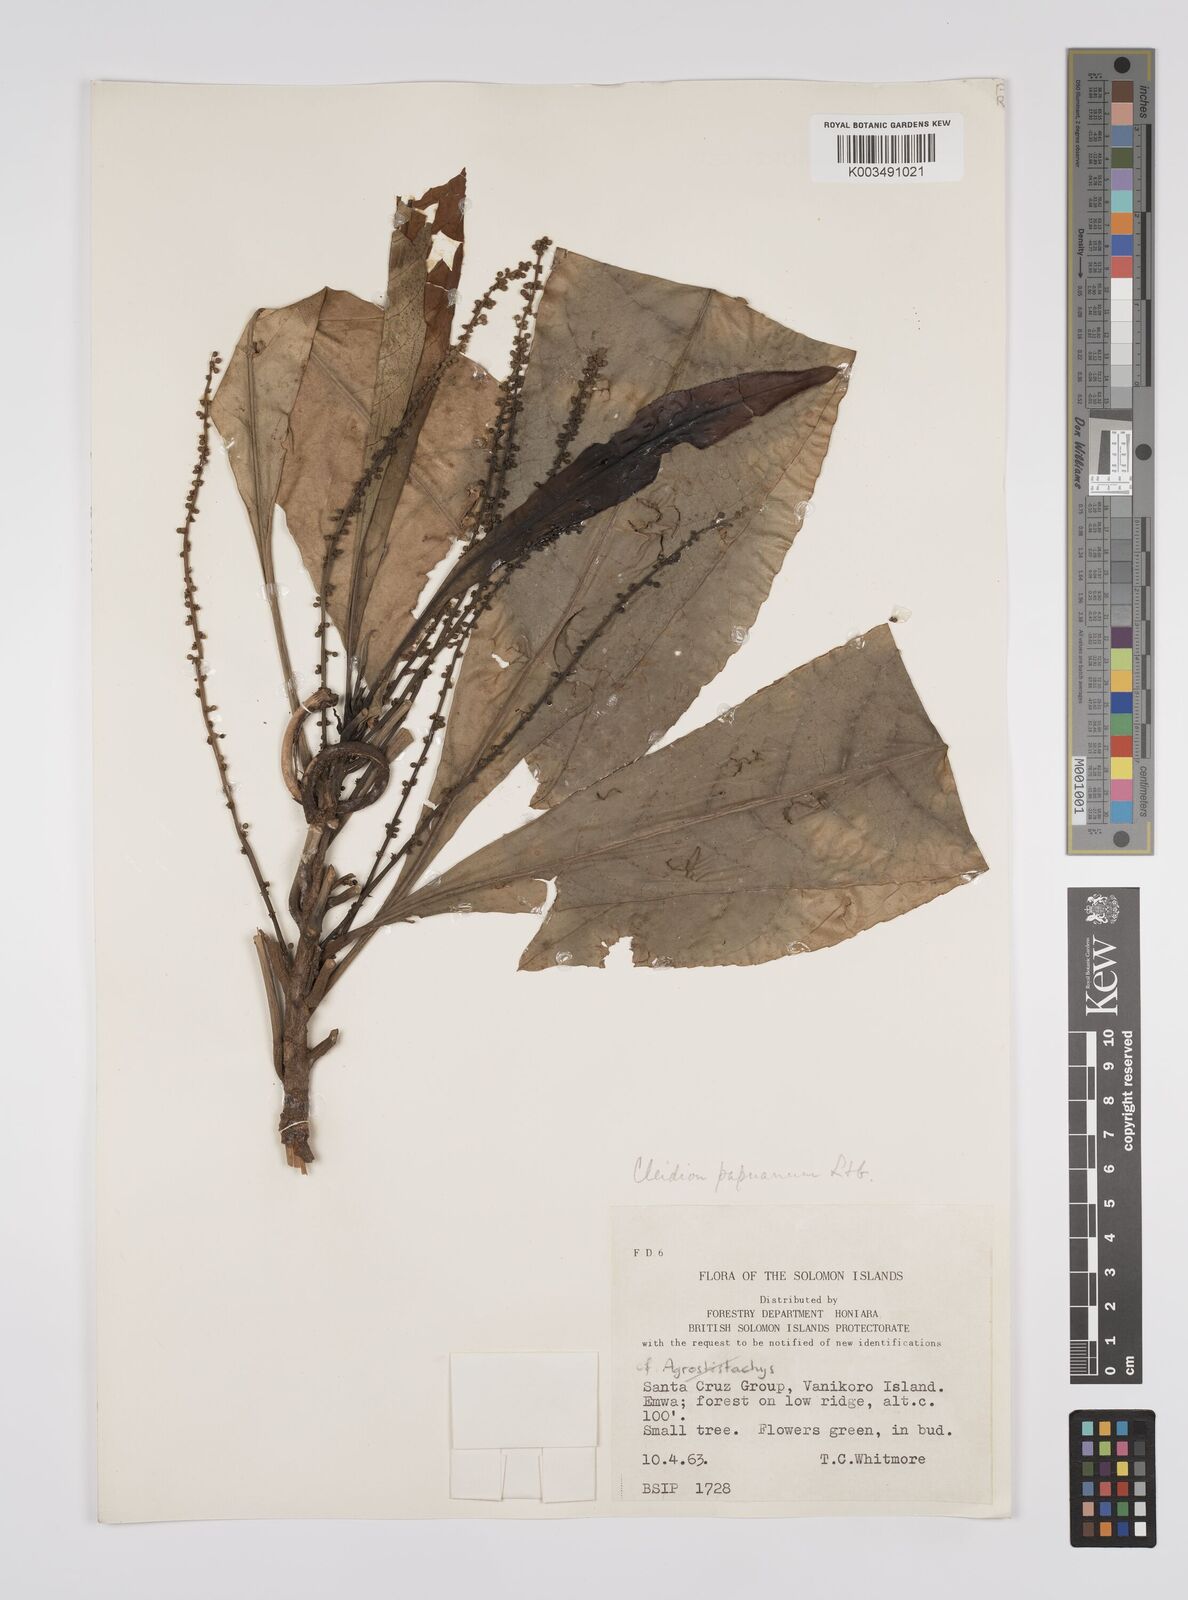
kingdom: Plantae
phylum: Tracheophyta
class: Magnoliopsida
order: Malpighiales
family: Euphorbiaceae
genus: Cleidion
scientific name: Cleidion papuanum
